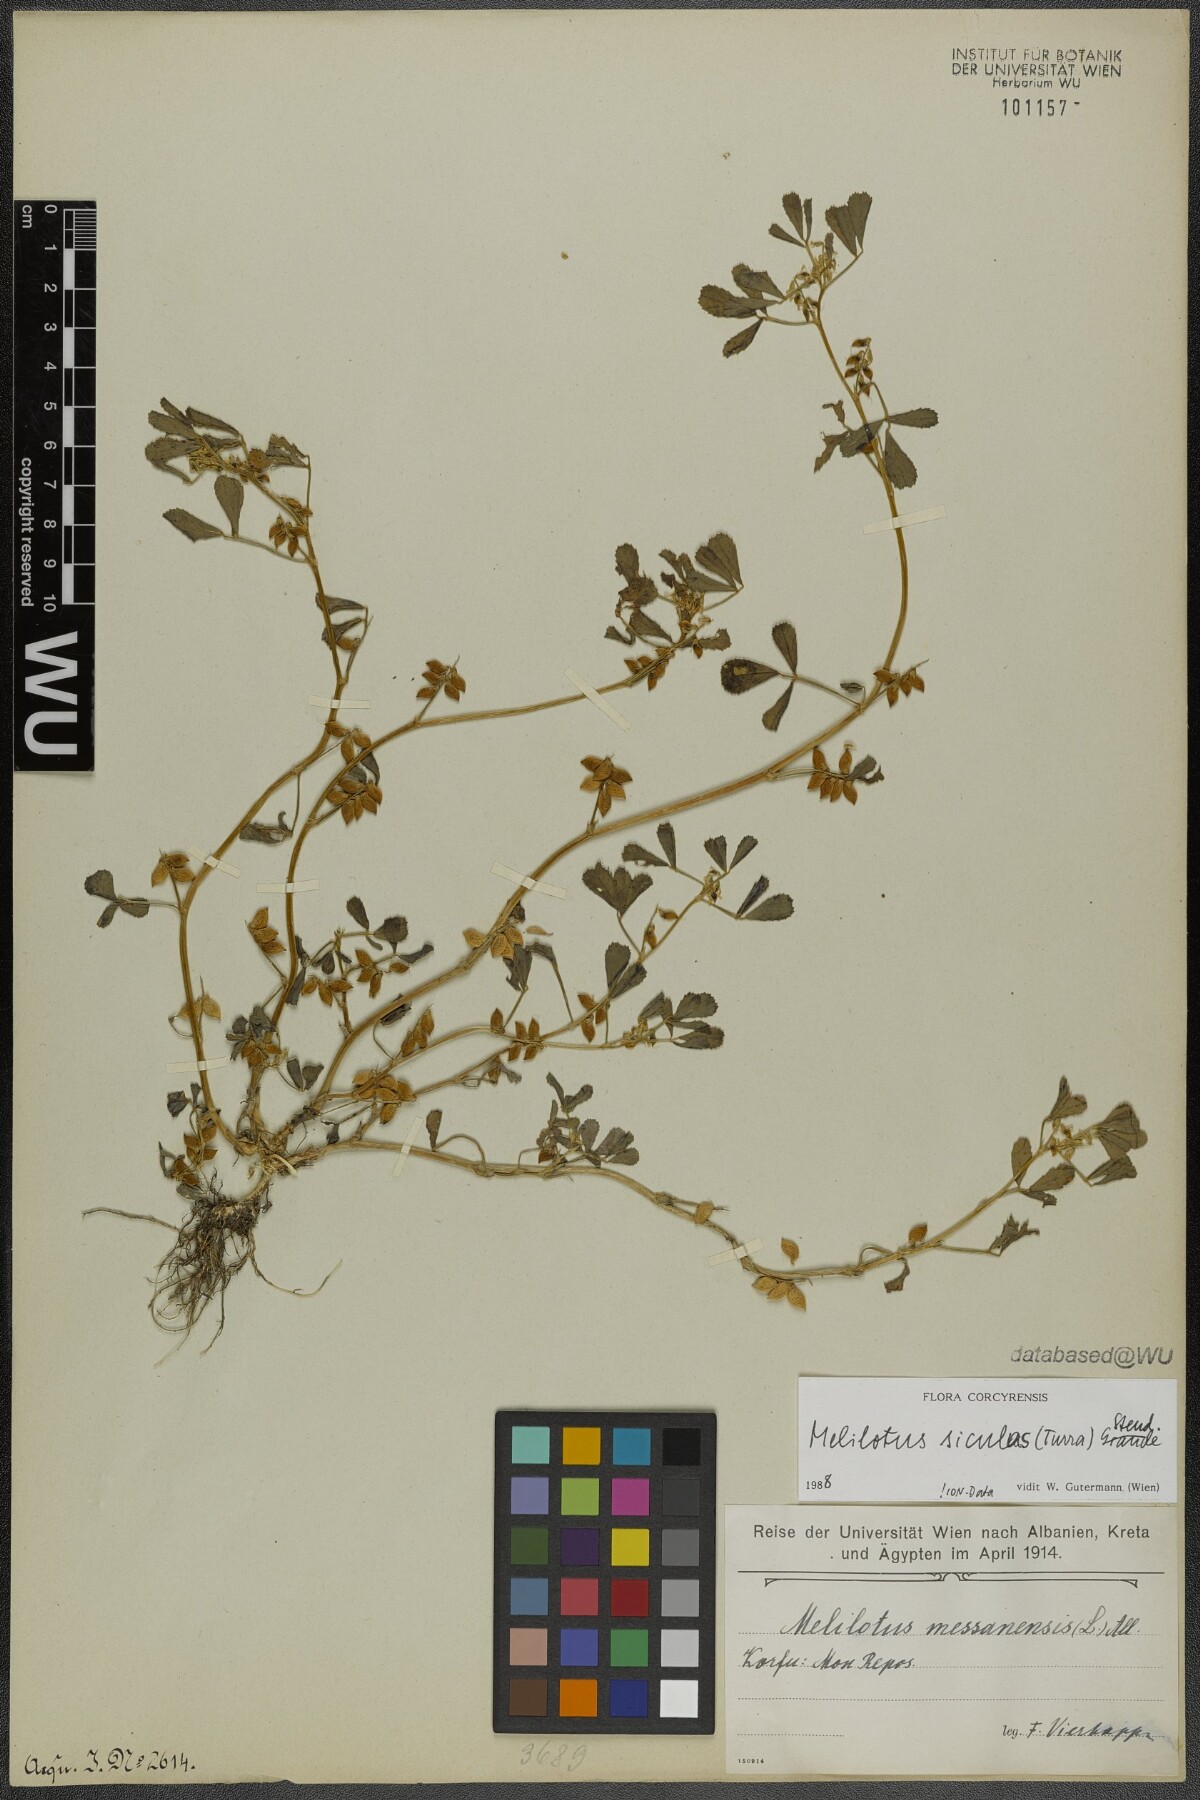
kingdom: Plantae
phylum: Tracheophyta
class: Magnoliopsida
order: Fabales
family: Fabaceae
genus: Melilotus
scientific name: Melilotus siculus
